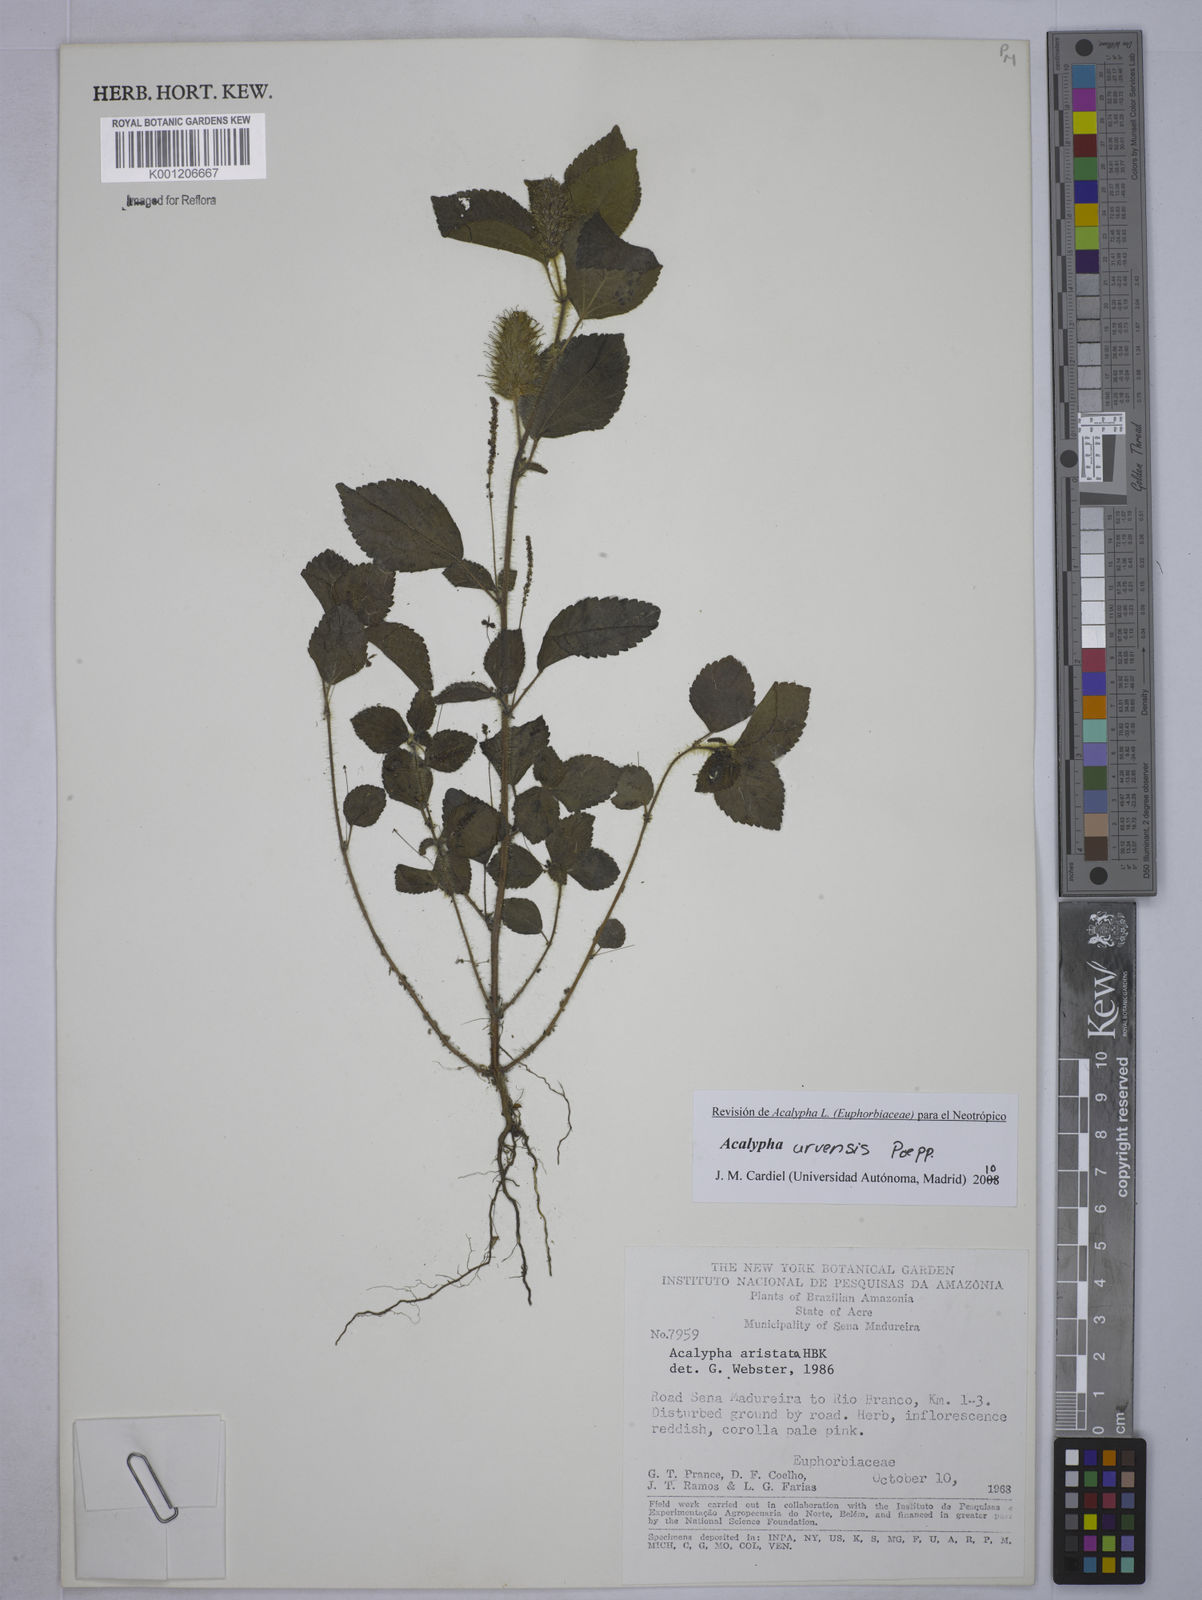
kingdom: Plantae
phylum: Tracheophyta
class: Magnoliopsida
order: Malpighiales
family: Euphorbiaceae
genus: Acalypha
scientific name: Acalypha arvensis
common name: Field copperleaf
